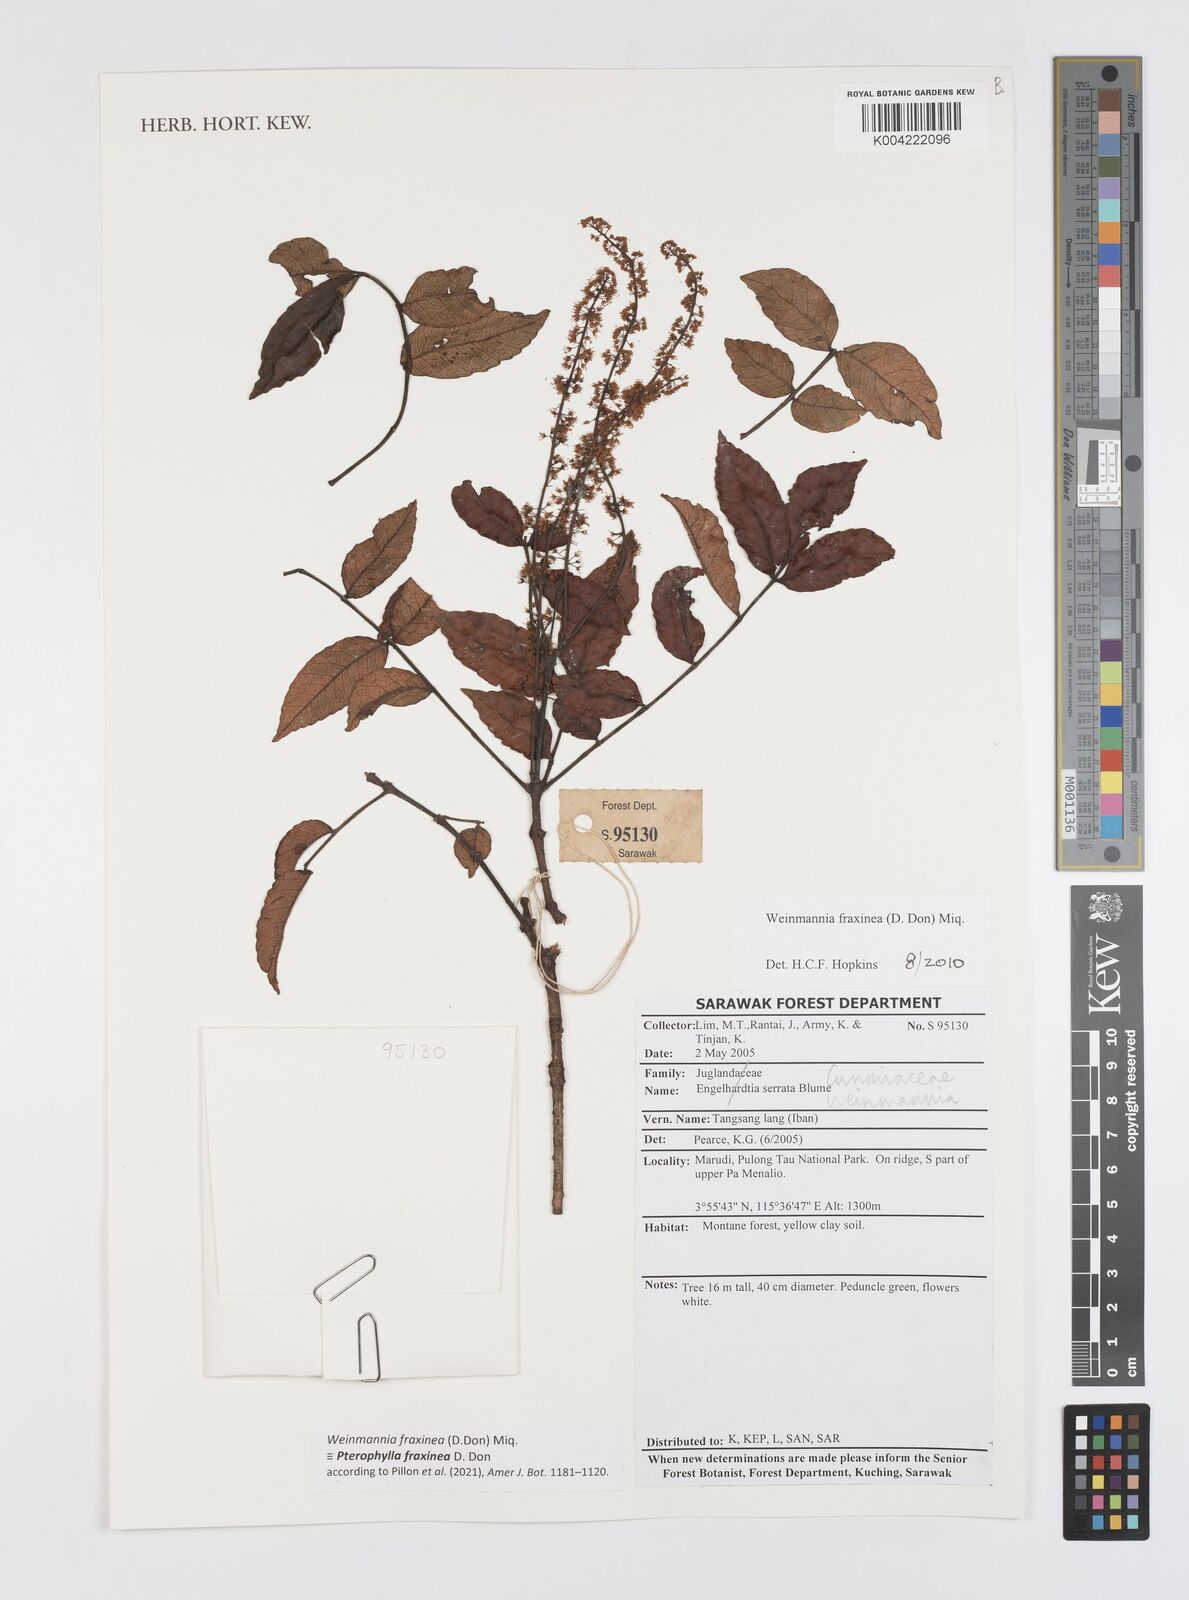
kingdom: Plantae
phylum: Tracheophyta
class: Magnoliopsida
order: Oxalidales
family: Cunoniaceae
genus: Pterophylla
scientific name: Pterophylla fraxinea
